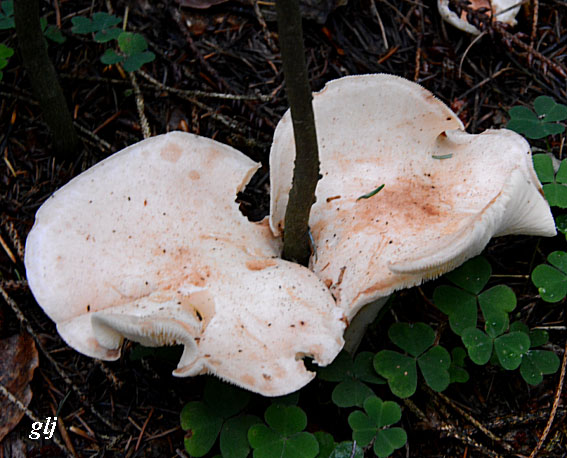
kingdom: Fungi
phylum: Basidiomycota
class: Agaricomycetes
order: Agaricales
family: Omphalotaceae
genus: Rhodocollybia
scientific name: Rhodocollybia maculata
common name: plettet fladhat
